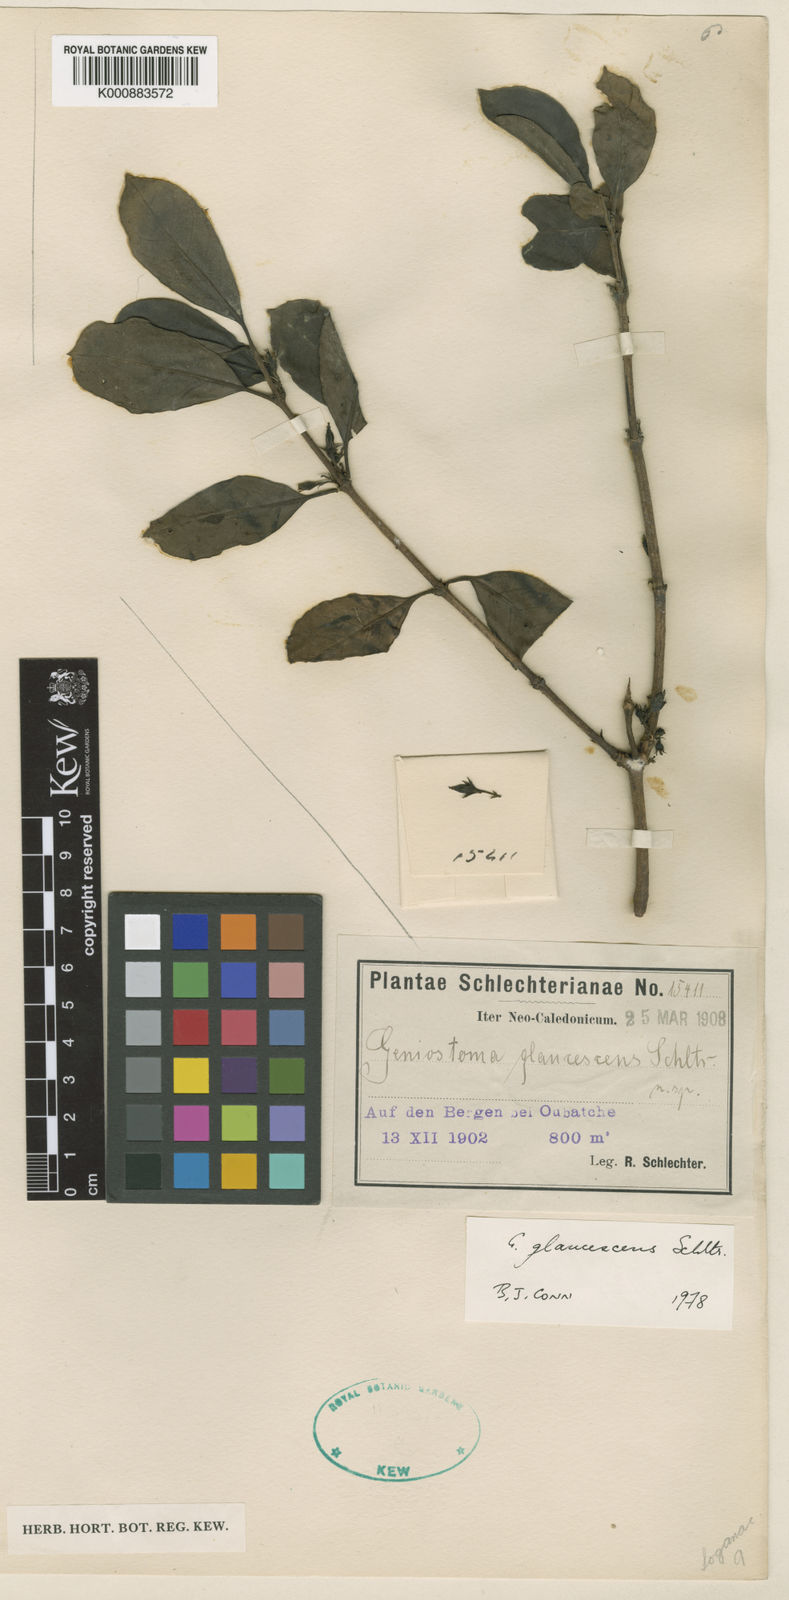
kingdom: Plantae
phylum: Tracheophyta
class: Magnoliopsida
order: Gentianales
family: Loganiaceae
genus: Geniostoma
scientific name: Geniostoma glaucescens
